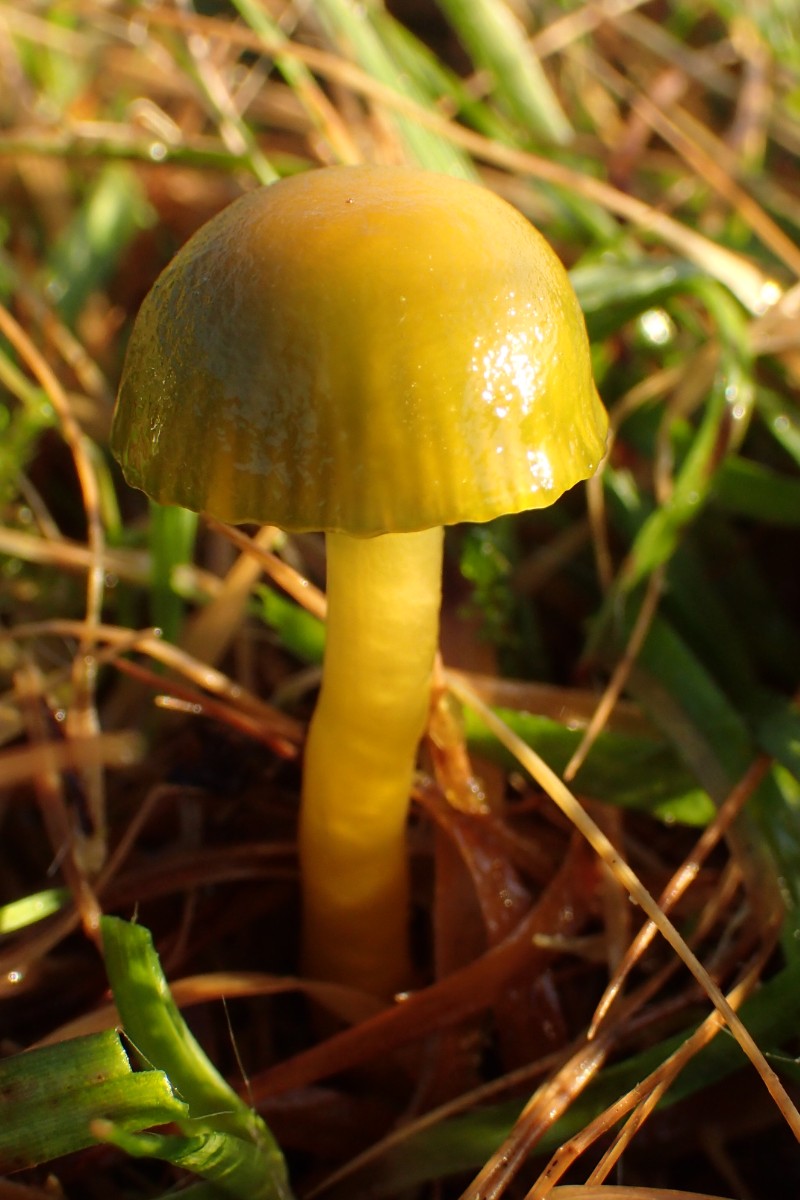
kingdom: Fungi
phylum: Basidiomycota
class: Agaricomycetes
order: Agaricales
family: Hygrophoraceae
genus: Gliophorus
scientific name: Gliophorus psittacinus
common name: papegøje-vokshat
